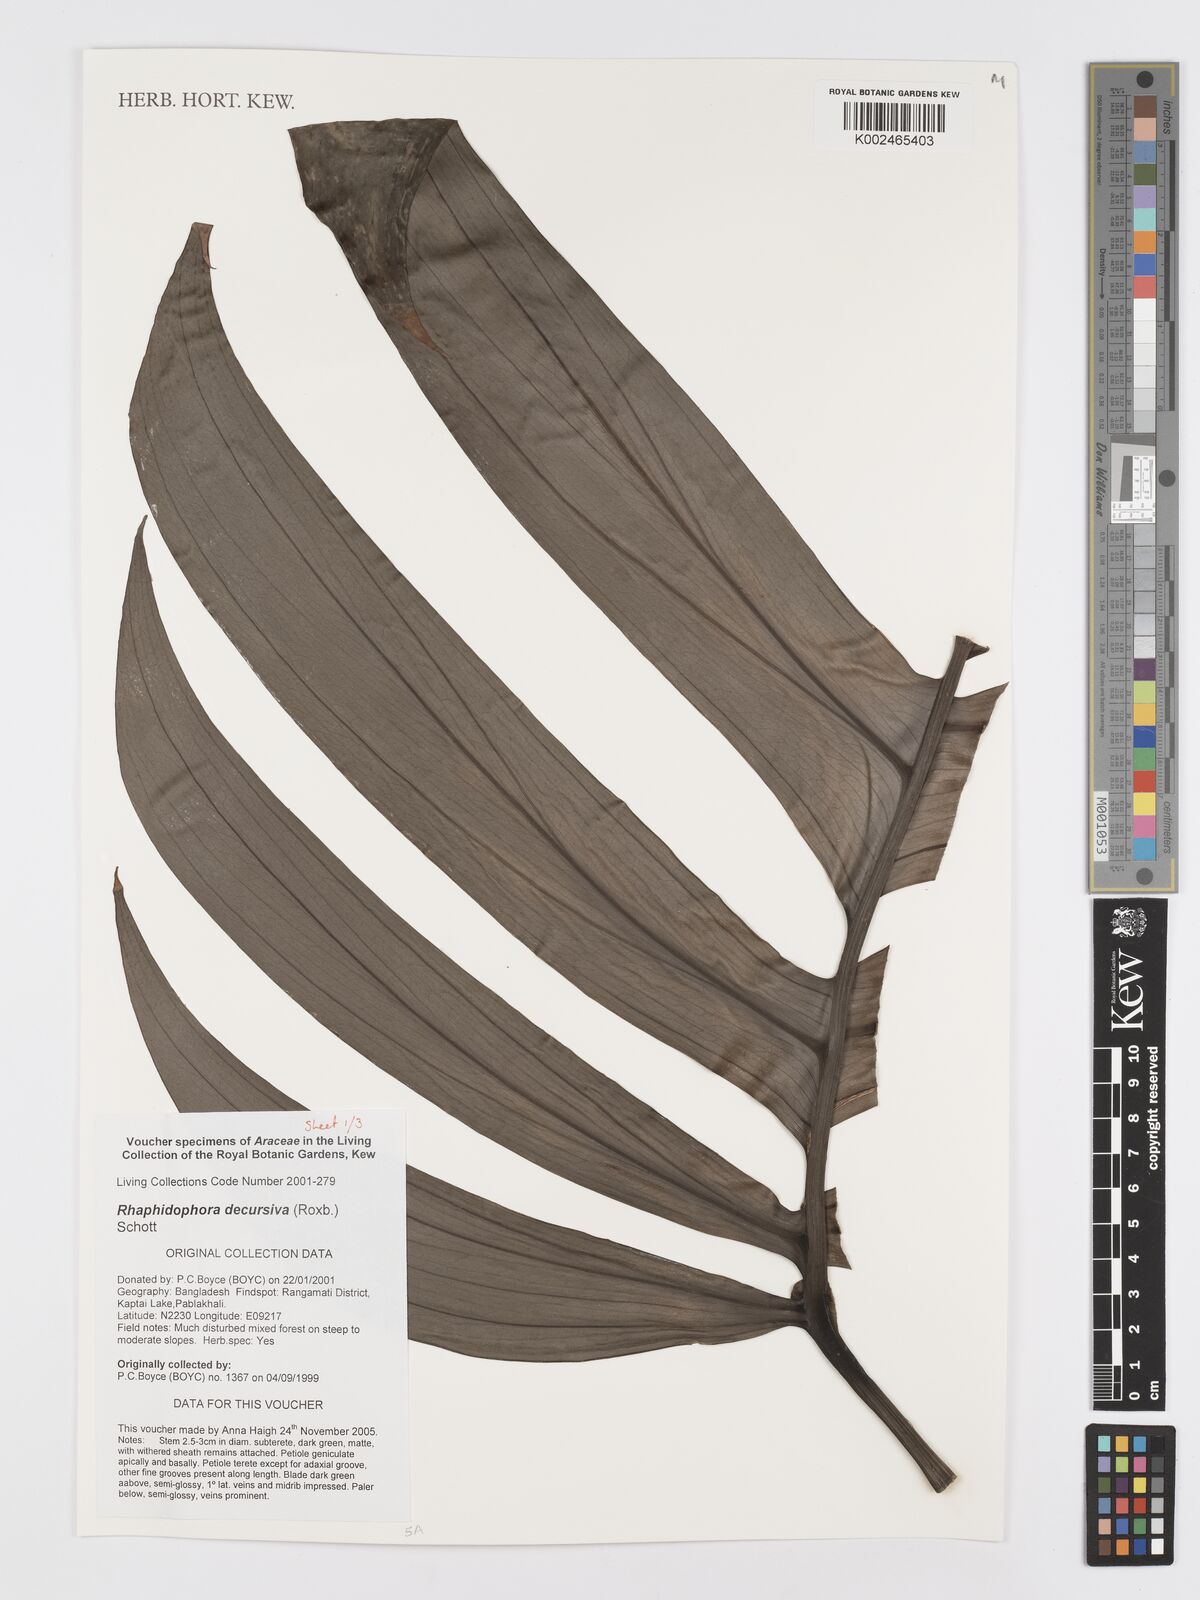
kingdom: Plantae
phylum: Tracheophyta
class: Liliopsida
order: Alismatales
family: Araceae
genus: Rhaphidophora
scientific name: Rhaphidophora decursiva
